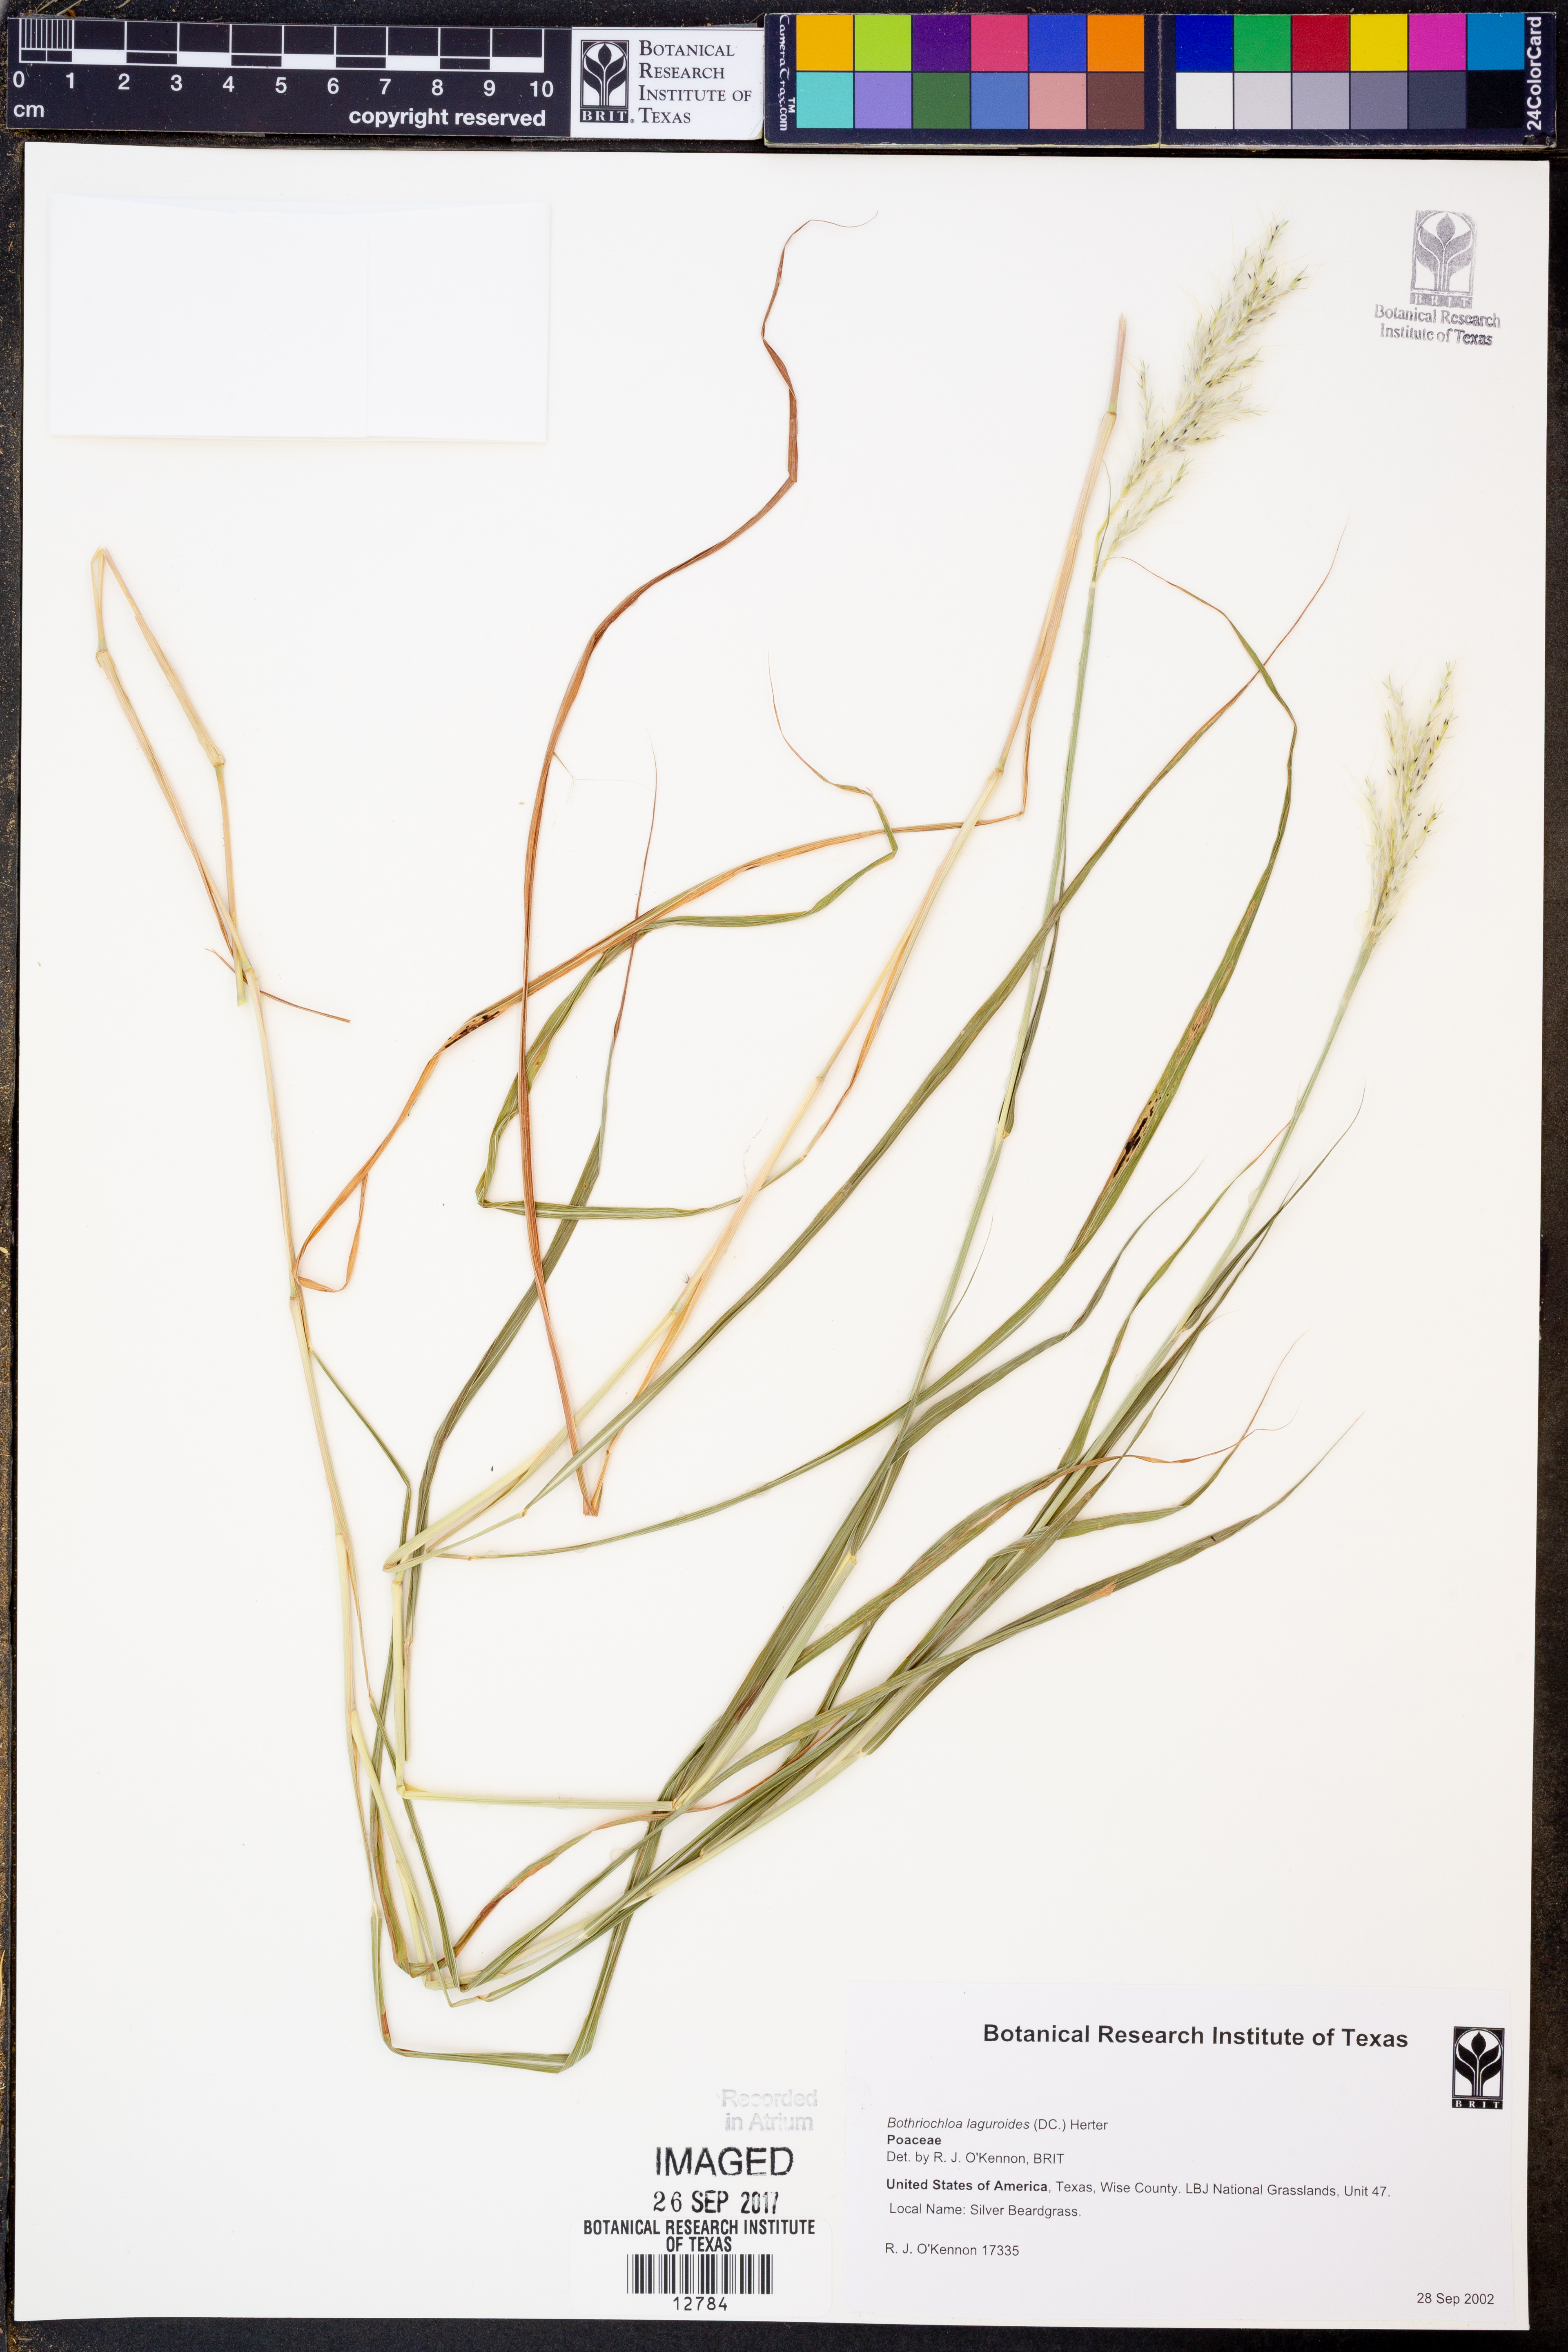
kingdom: Plantae
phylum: Tracheophyta
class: Liliopsida
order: Poales
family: Poaceae
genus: Bothriochloa
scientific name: Bothriochloa laguroides
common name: Silver bluestem
